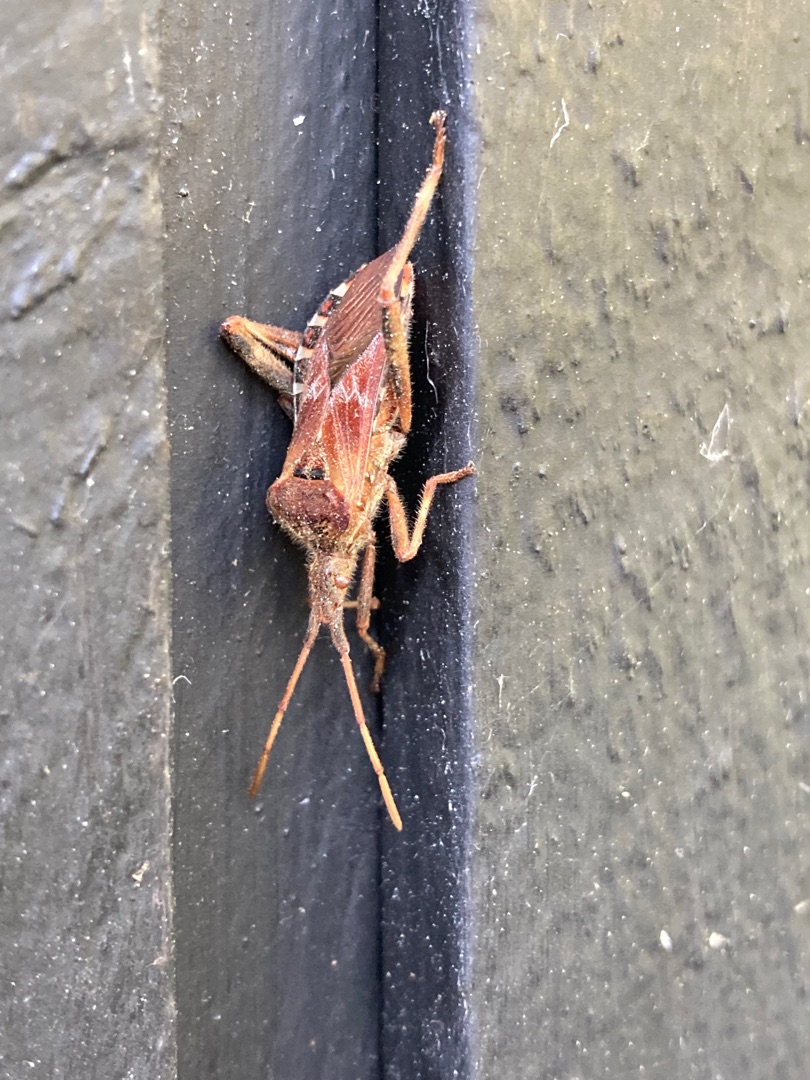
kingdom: Animalia
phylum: Arthropoda
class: Insecta
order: Hemiptera
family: Coreidae
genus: Leptoglossus
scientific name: Leptoglossus occidentalis
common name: Amerikansk fyrretæge
